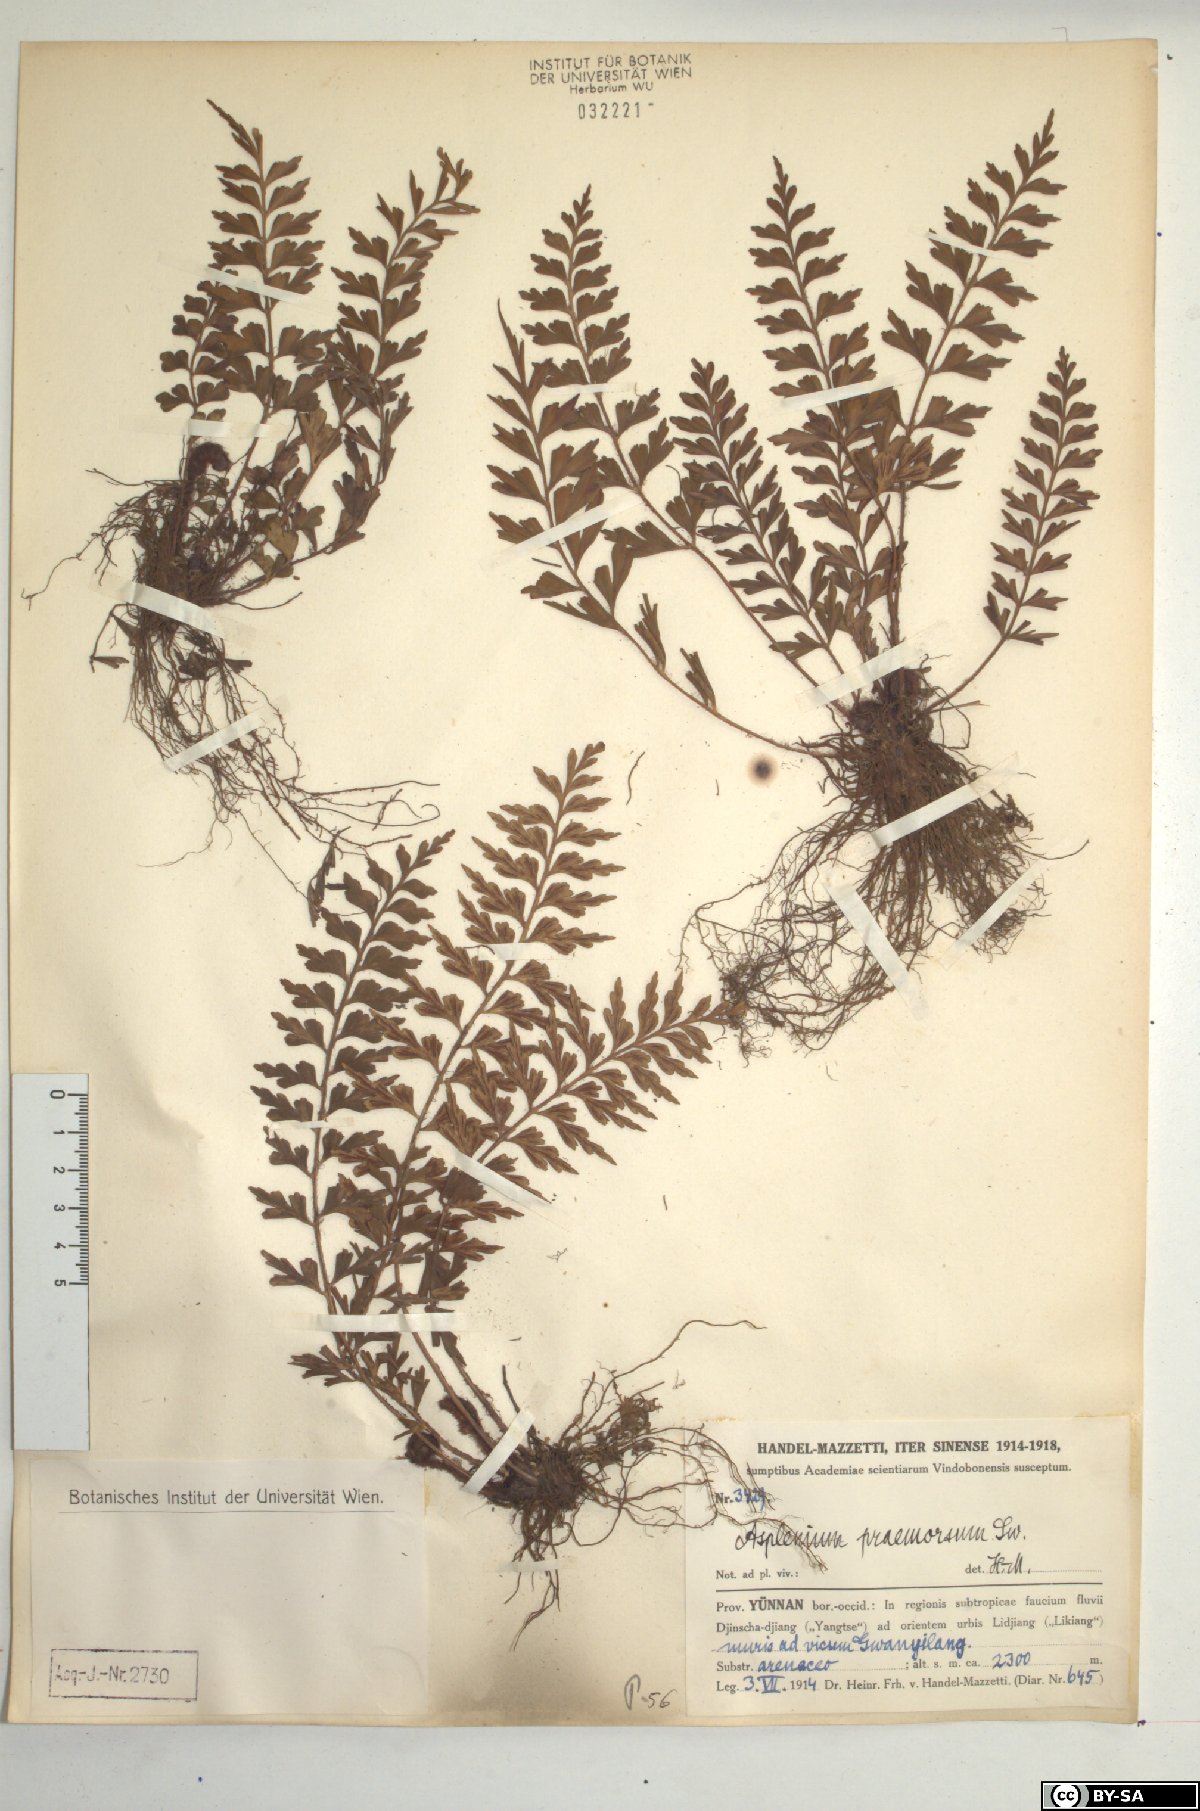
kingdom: Plantae
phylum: Tracheophyta
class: Polypodiopsida
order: Polypodiales
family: Aspleniaceae
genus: Asplenium
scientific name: Asplenium praemorsum
